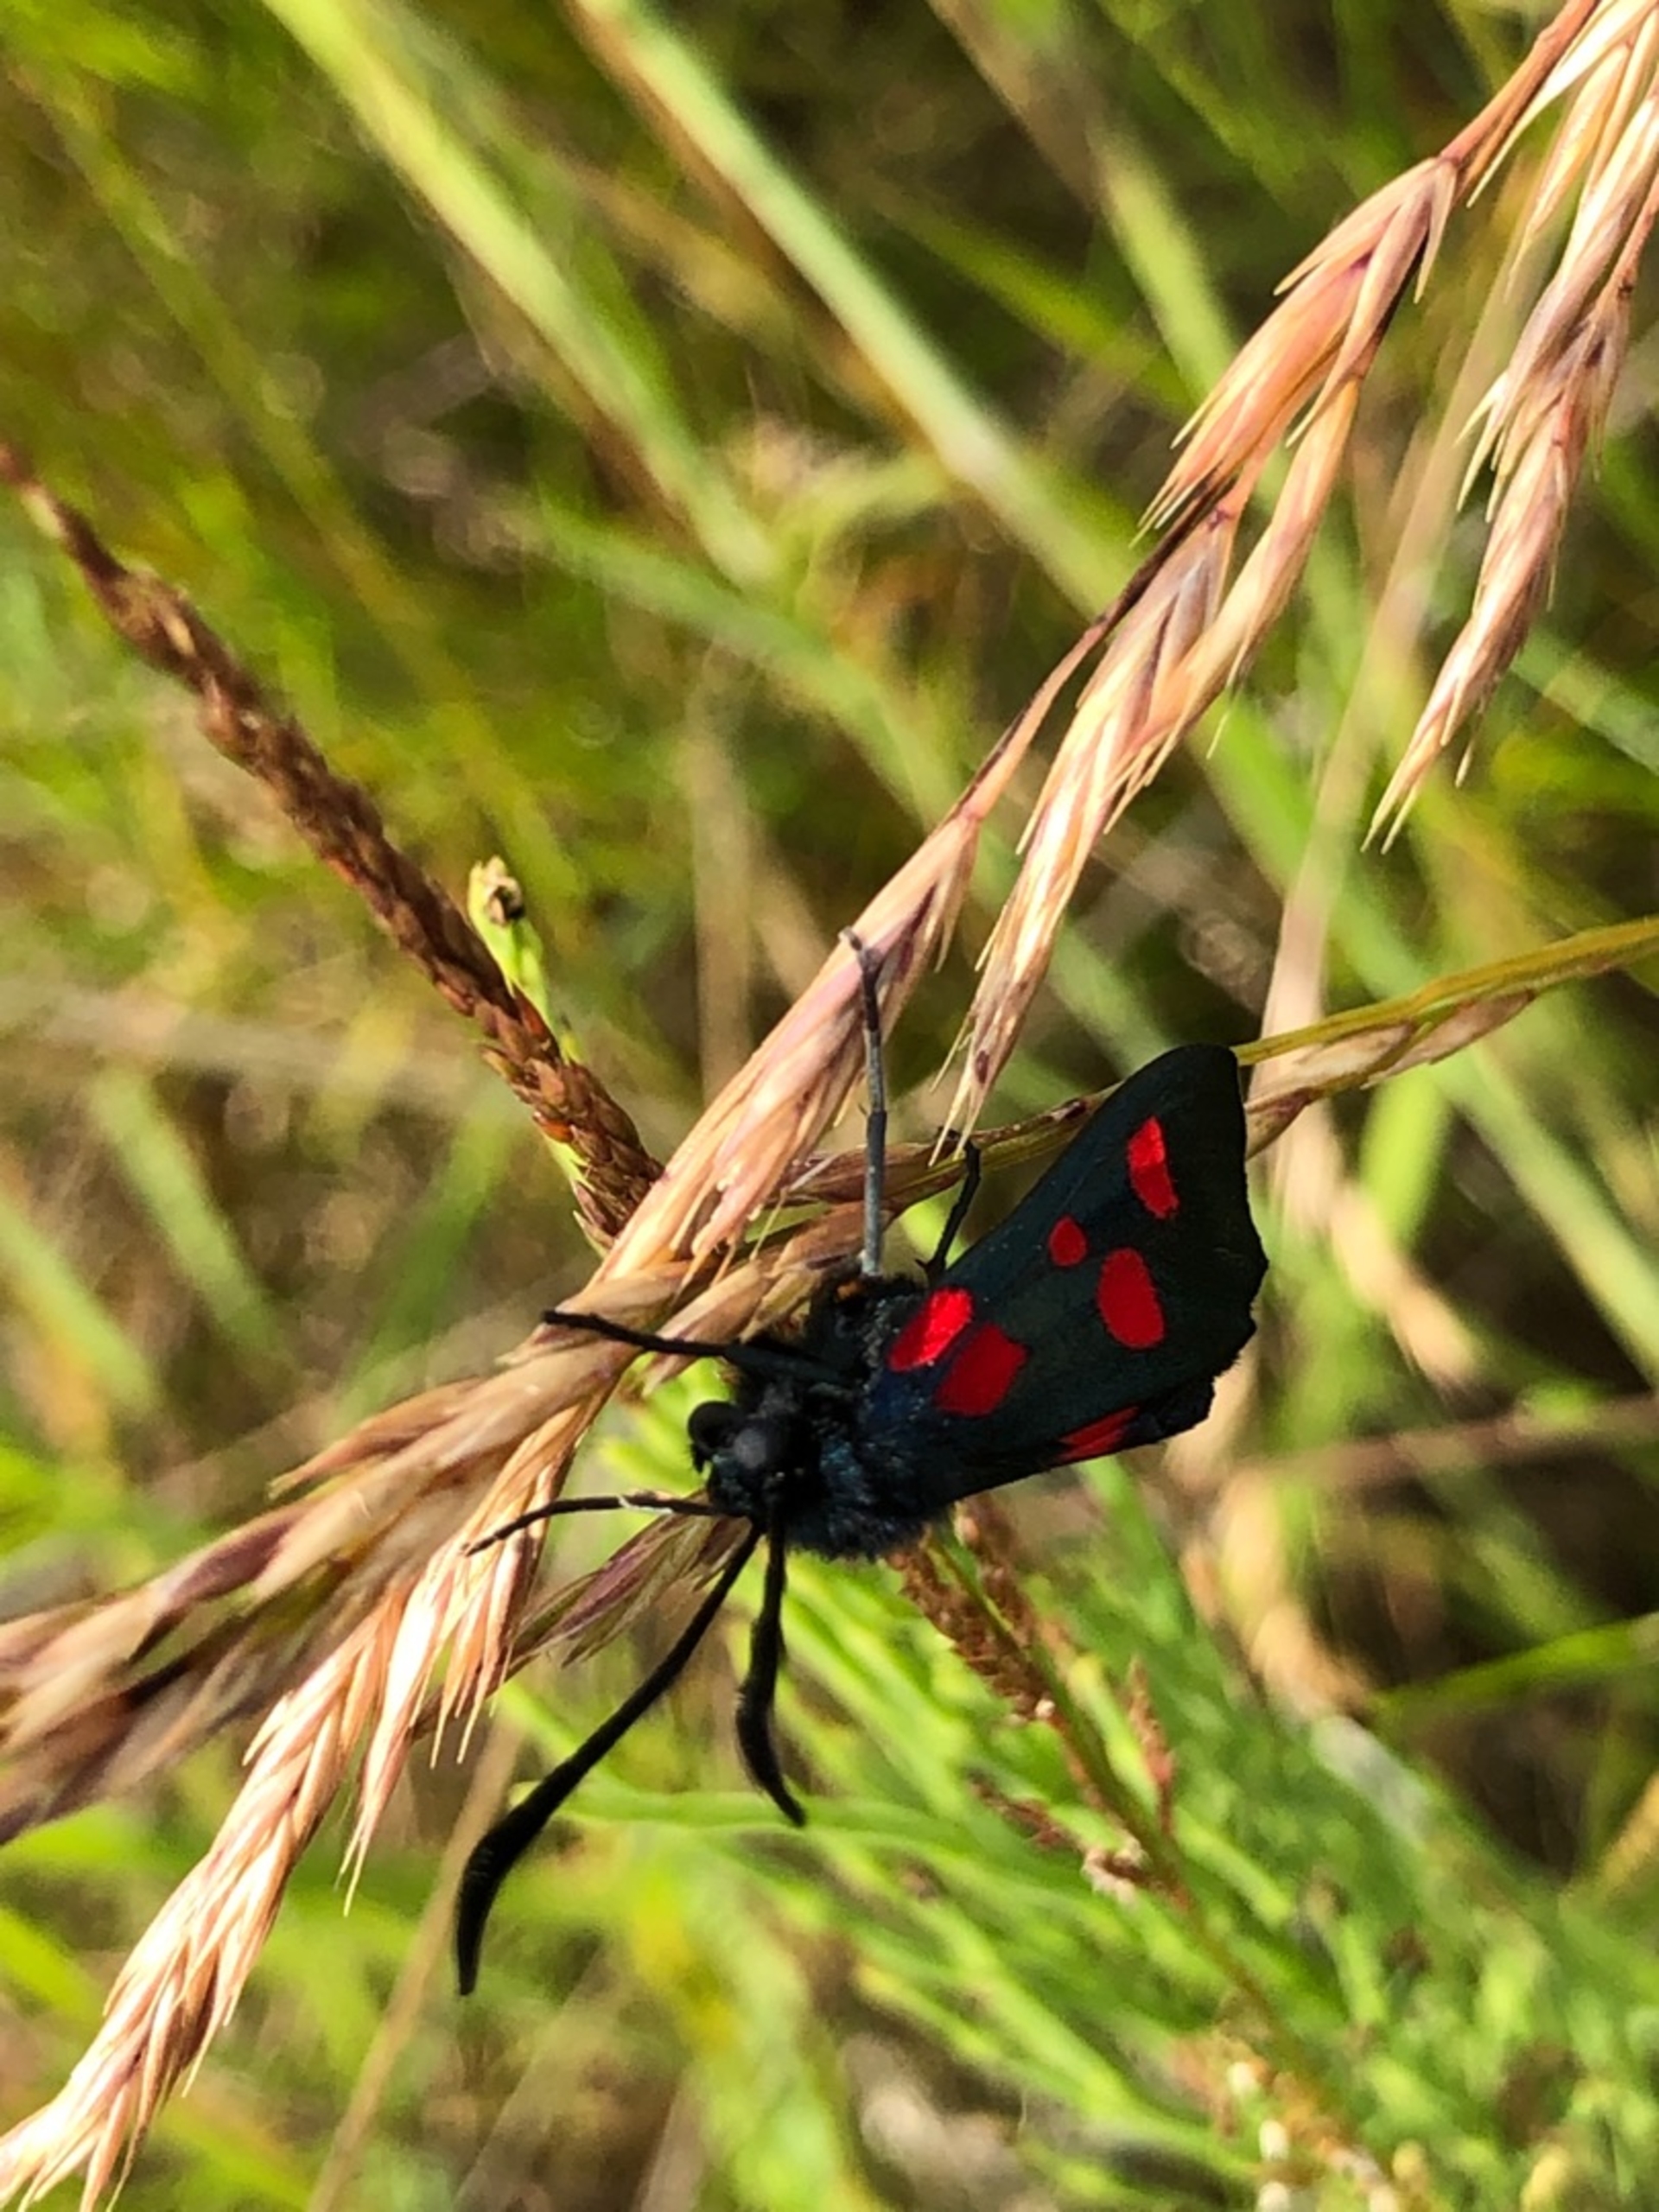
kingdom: Animalia
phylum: Arthropoda
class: Insecta
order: Lepidoptera
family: Zygaenidae
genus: Zygaena
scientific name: Zygaena lonicerae
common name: Femplettet køllesværmer
